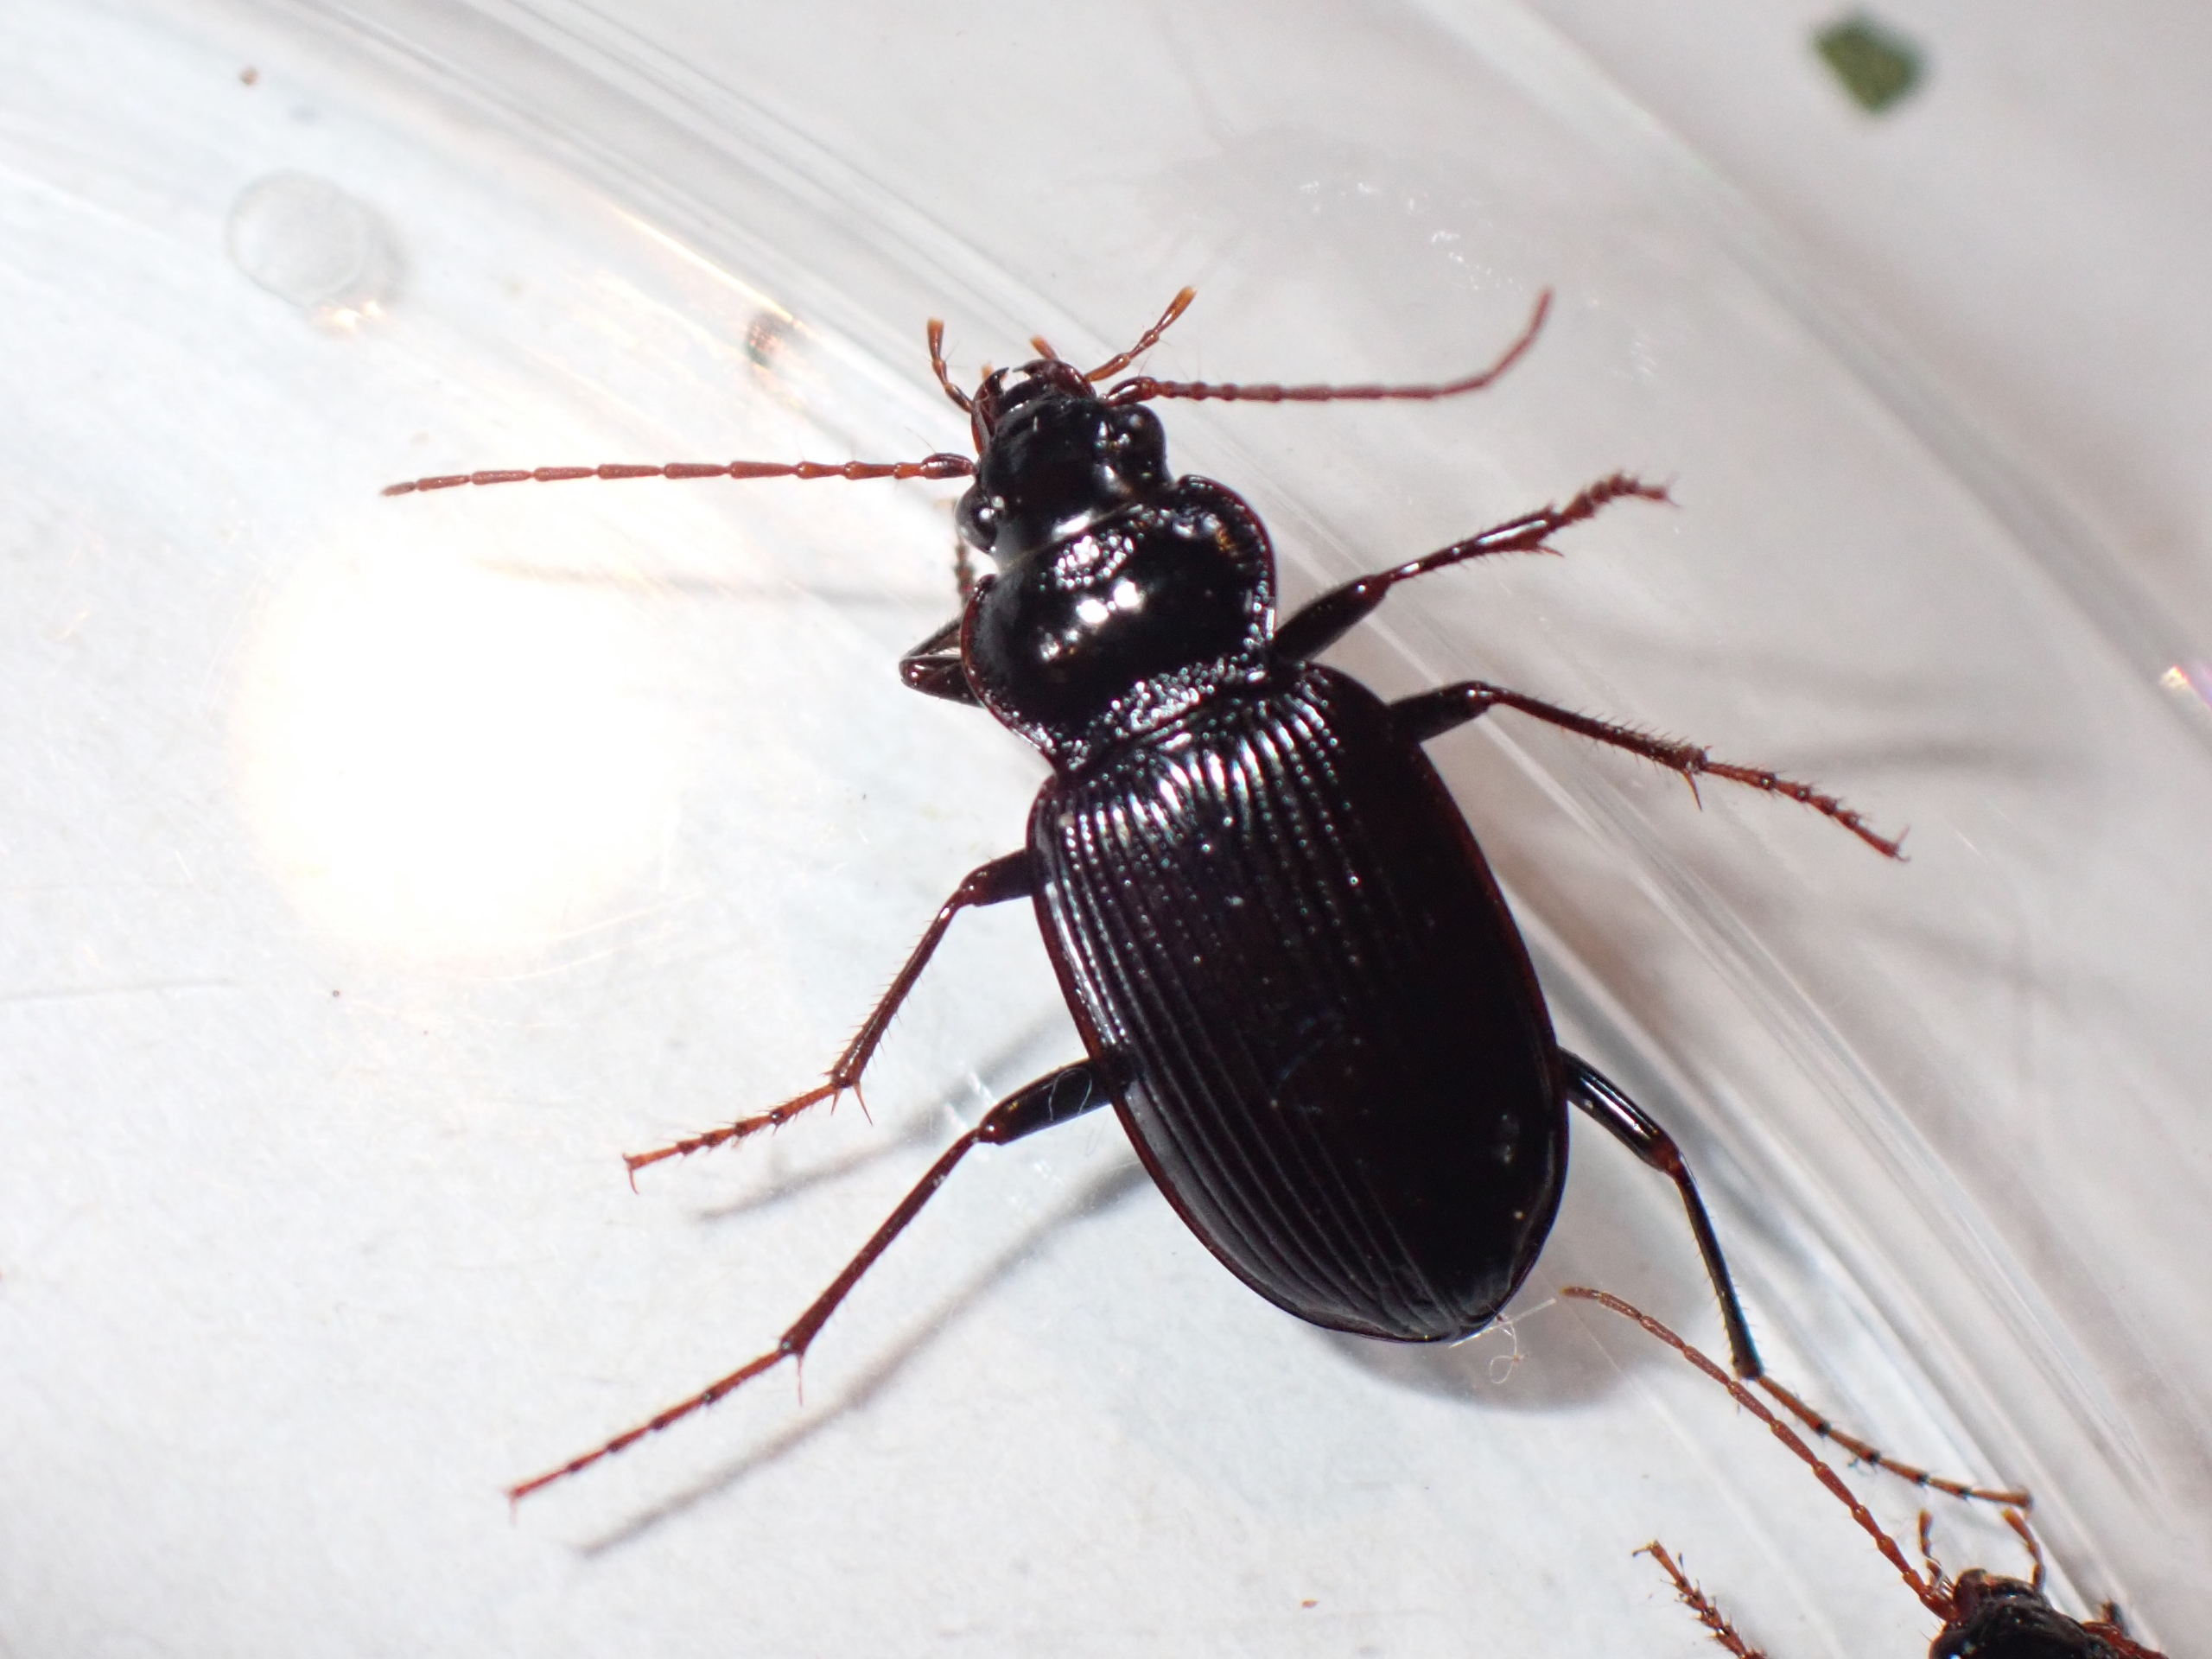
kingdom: Animalia
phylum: Arthropoda
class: Insecta
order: Coleoptera
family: Carabidae
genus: Nebria
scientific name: Nebria salina
